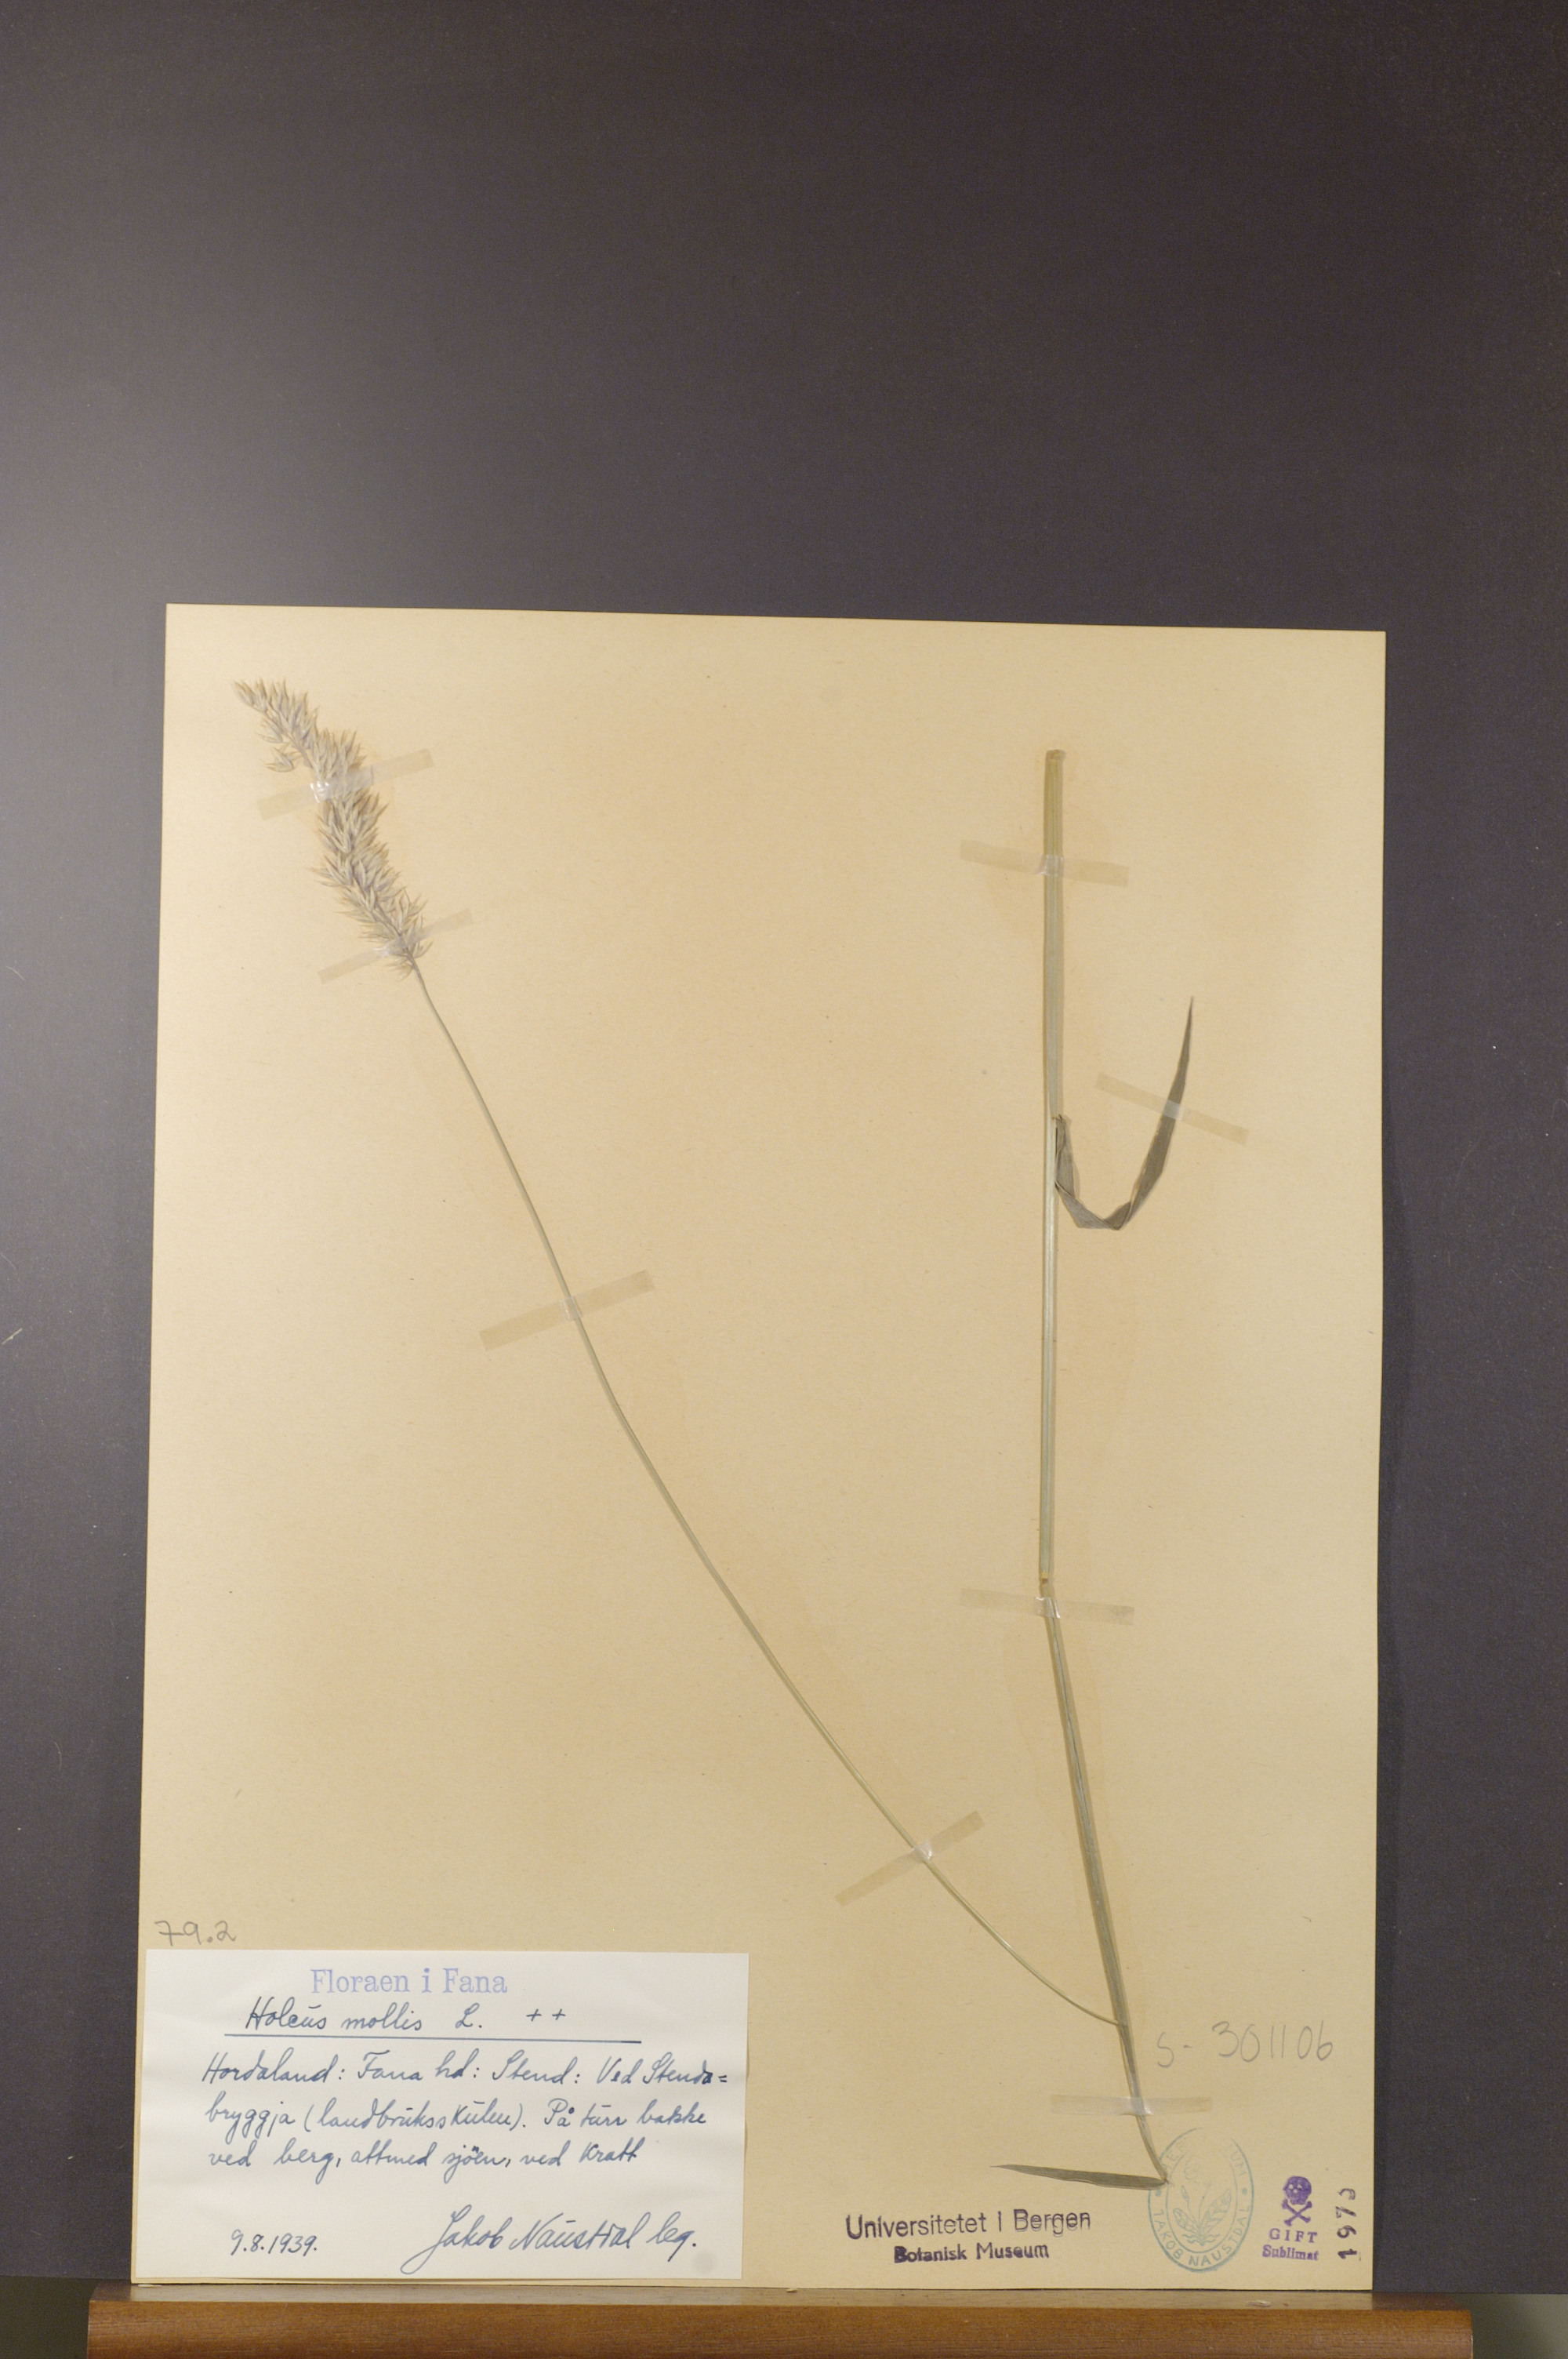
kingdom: Plantae
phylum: Tracheophyta
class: Liliopsida
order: Poales
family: Poaceae
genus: Holcus
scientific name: Holcus mollis
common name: Creeping velvetgrass
